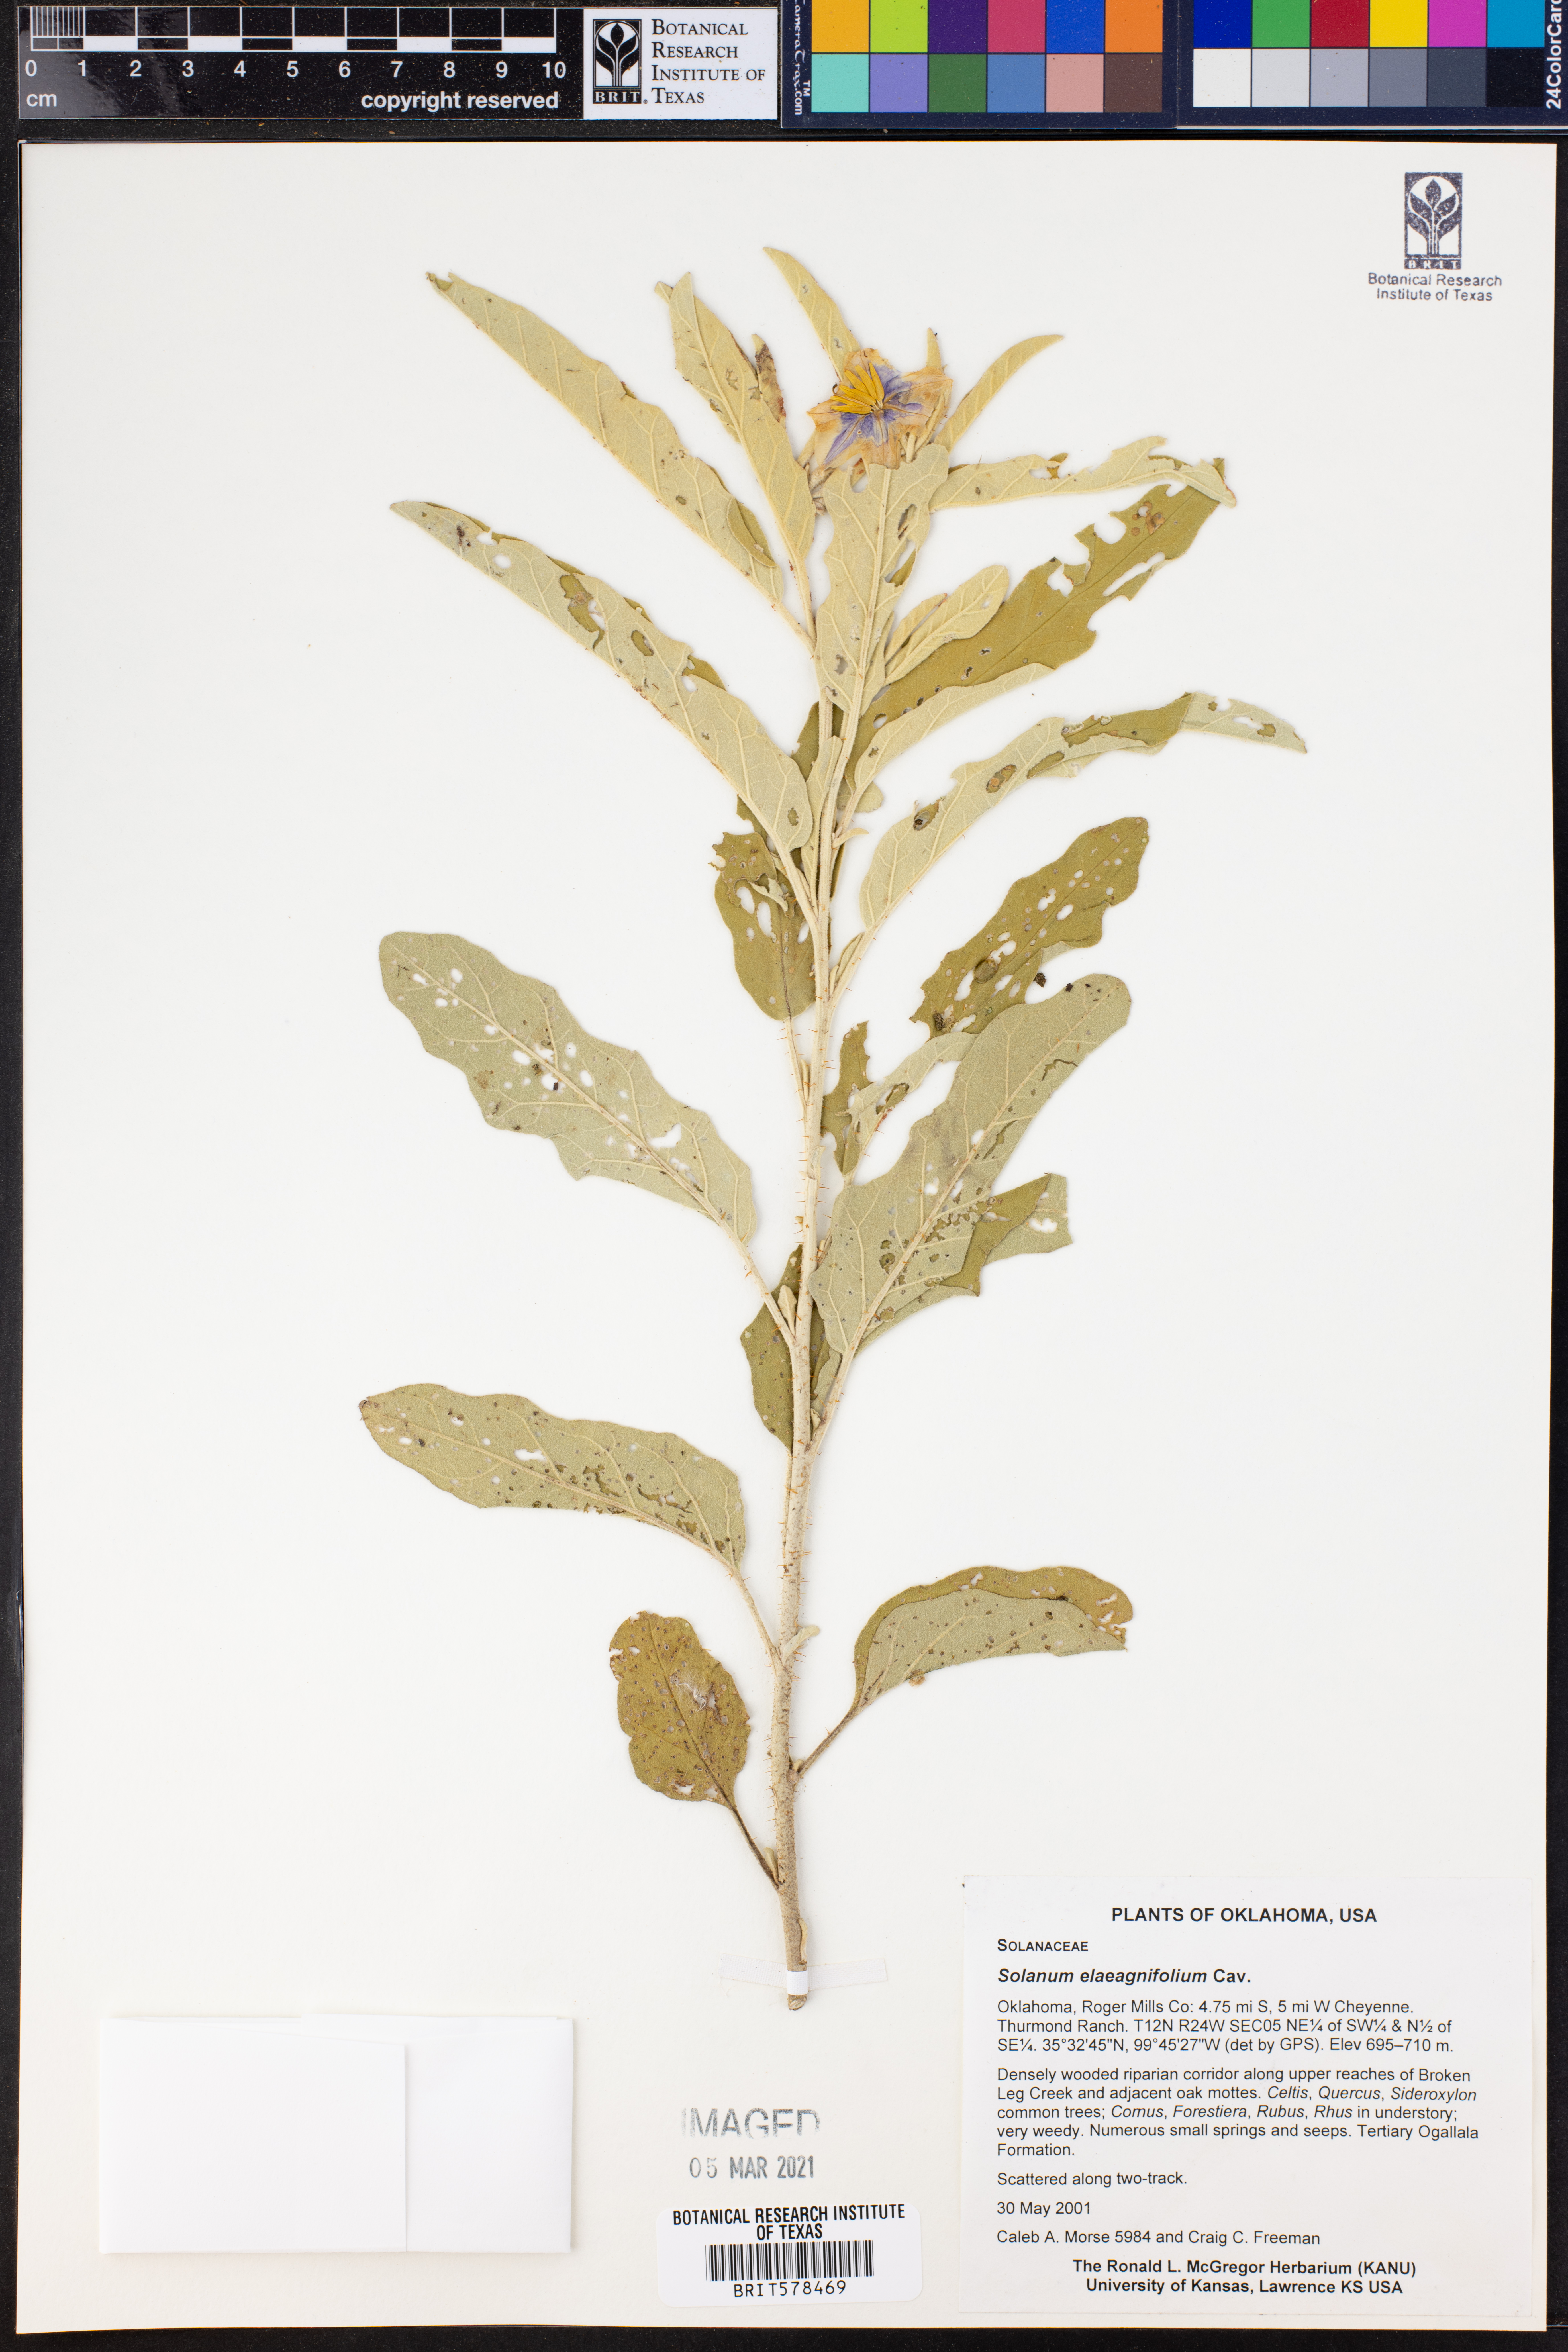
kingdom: Plantae
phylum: Tracheophyta
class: Magnoliopsida
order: Solanales
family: Solanaceae
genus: Solanum
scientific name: Solanum elaeagnifolium
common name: Silverleaf nightshade
